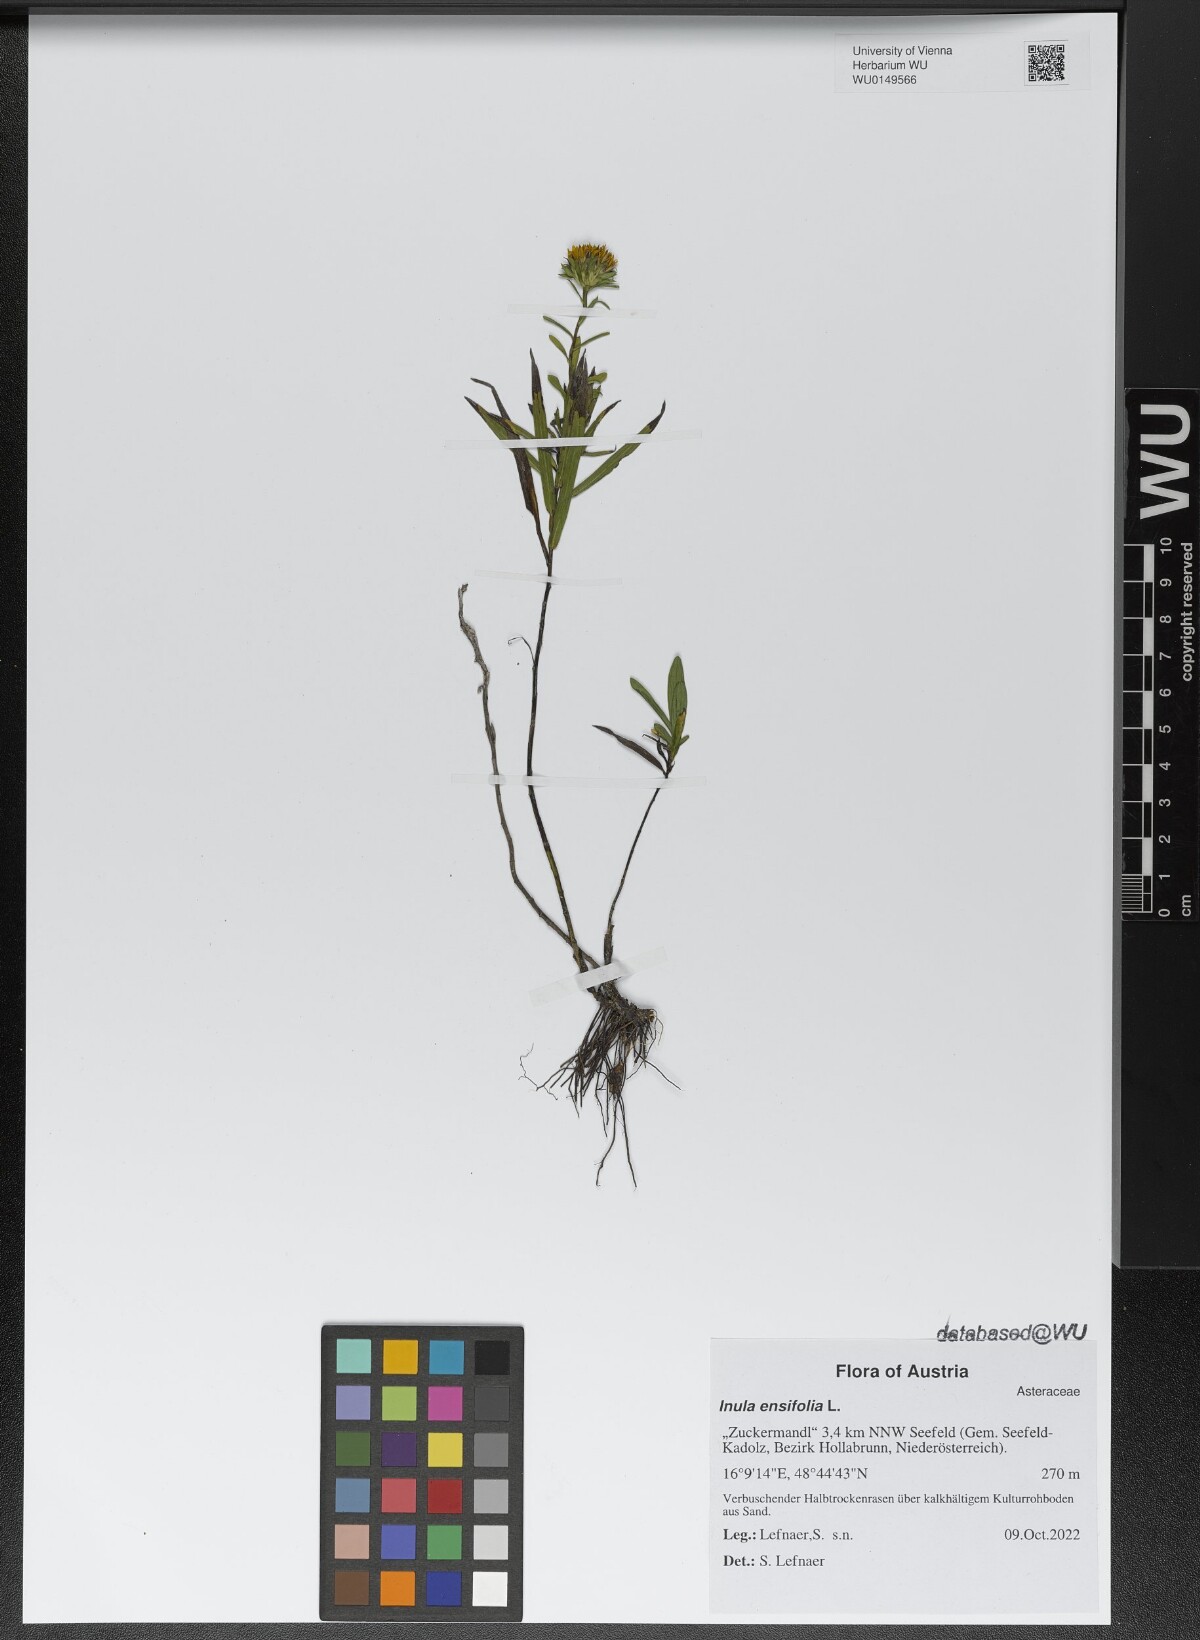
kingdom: Plantae
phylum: Tracheophyta
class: Magnoliopsida
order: Asterales
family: Asteraceae
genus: Pentanema
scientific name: Pentanema ensifolium
